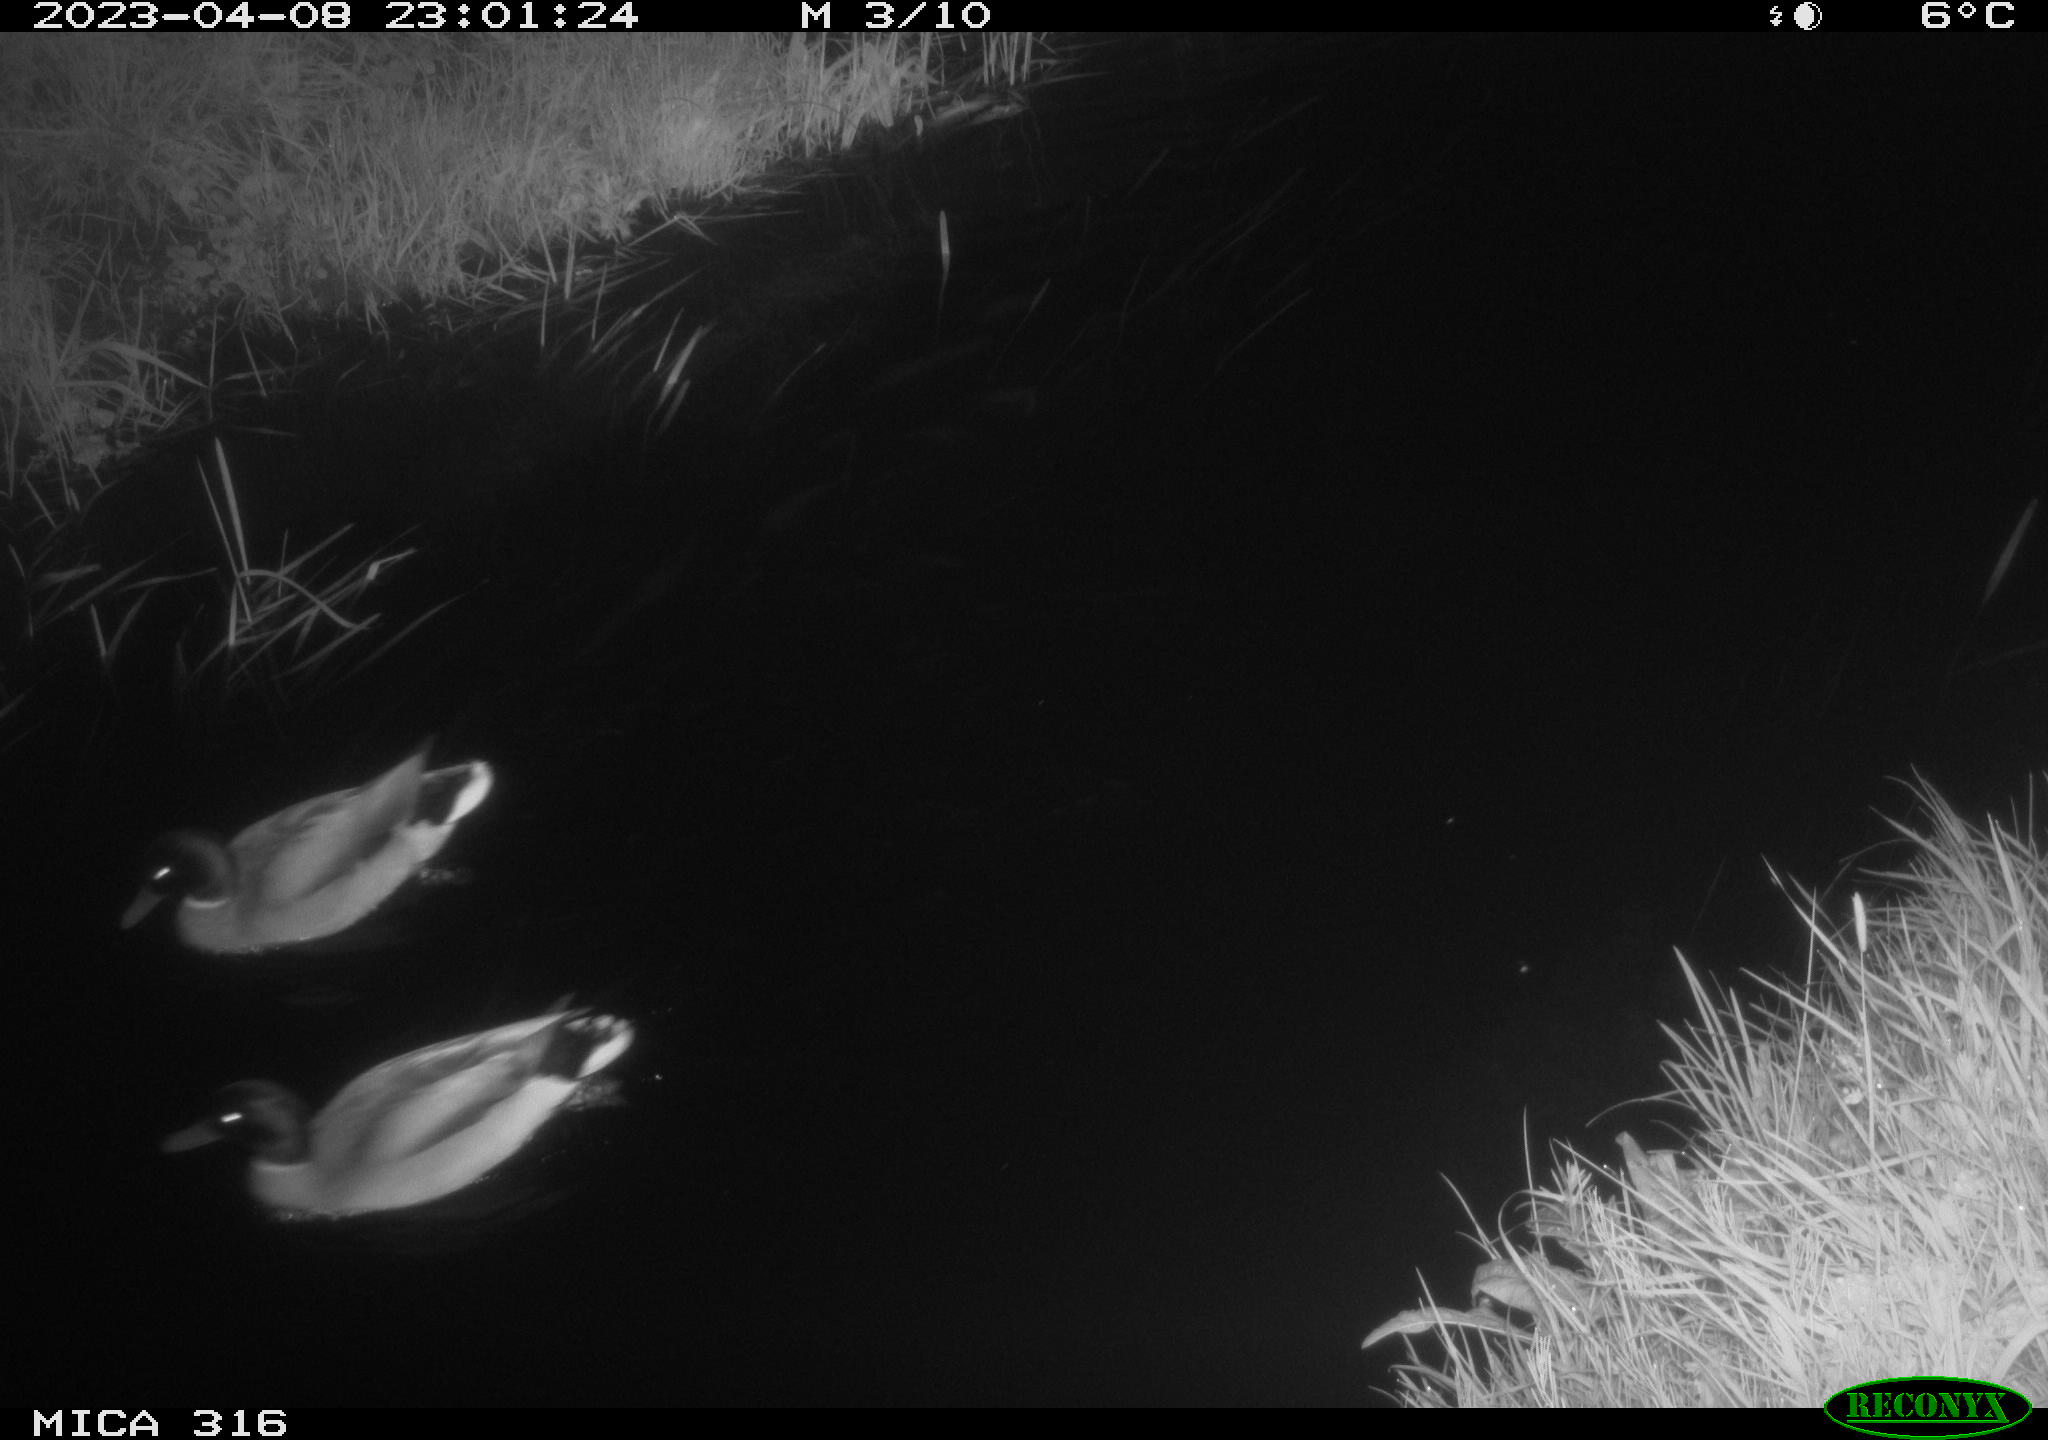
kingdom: Animalia
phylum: Chordata
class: Aves
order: Anseriformes
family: Anatidae
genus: Anas
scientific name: Anas
